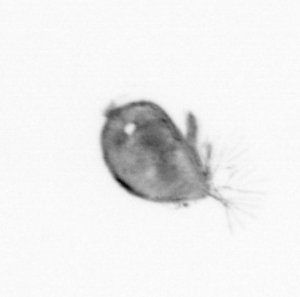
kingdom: Animalia
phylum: Arthropoda
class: Maxillopoda
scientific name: Maxillopoda
